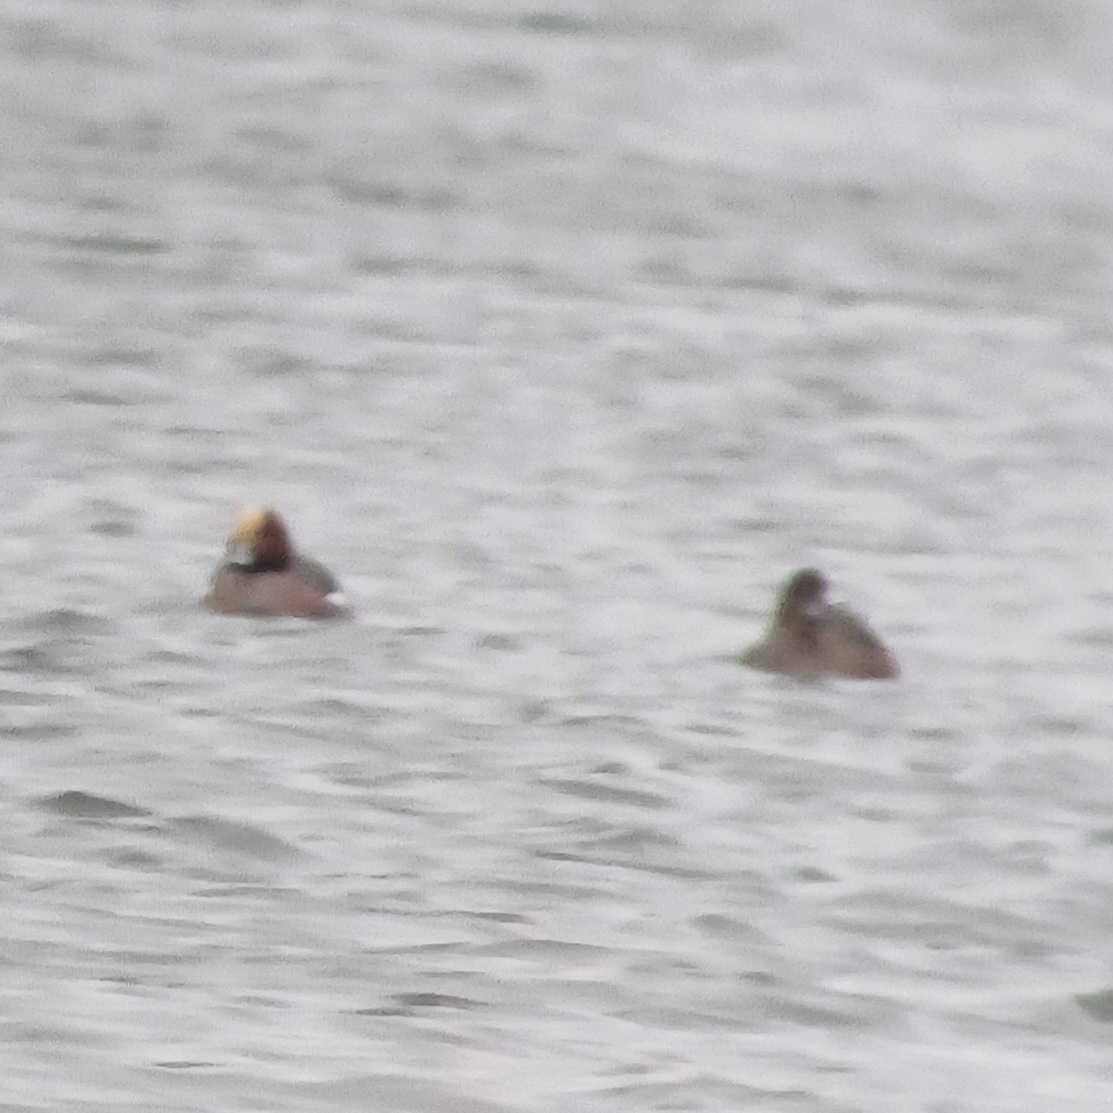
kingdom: Animalia
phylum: Chordata
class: Aves
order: Anseriformes
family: Anatidae
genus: Mareca
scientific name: Mareca penelope
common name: Pibeand
